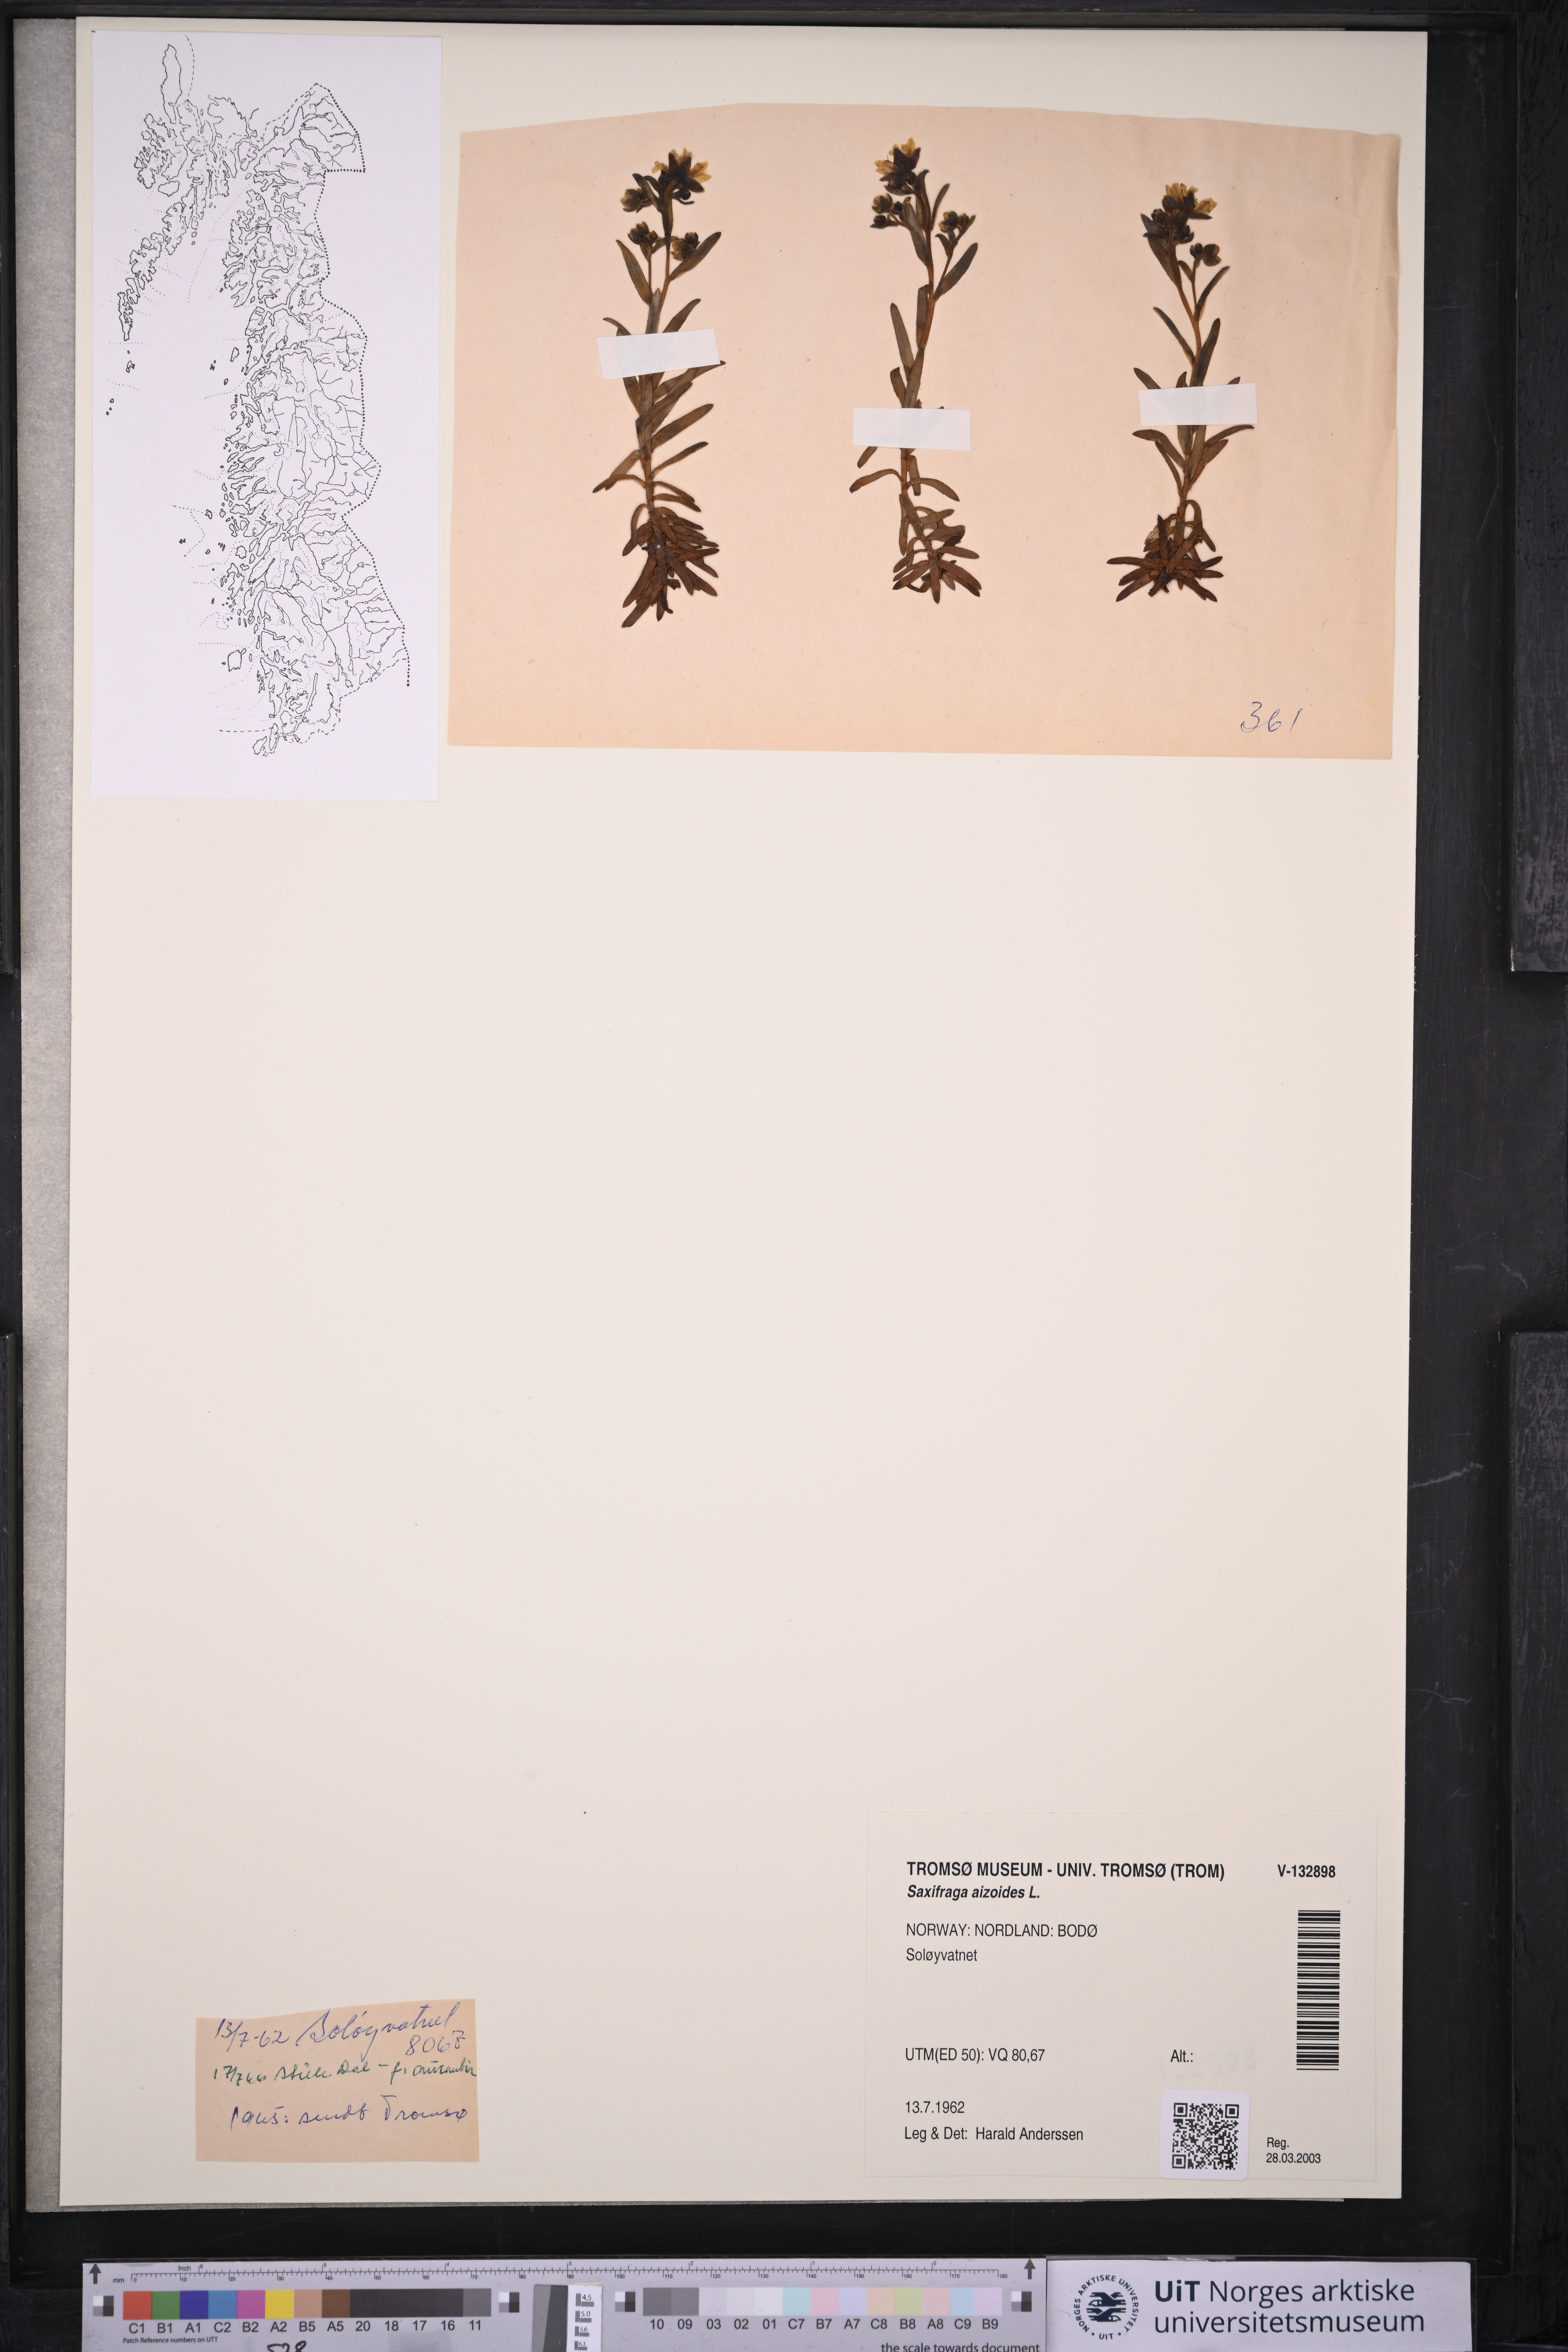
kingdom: Plantae
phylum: Tracheophyta
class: Magnoliopsida
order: Saxifragales
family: Saxifragaceae
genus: Saxifraga
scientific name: Saxifraga aizoides
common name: Yellow mountain saxifrage
